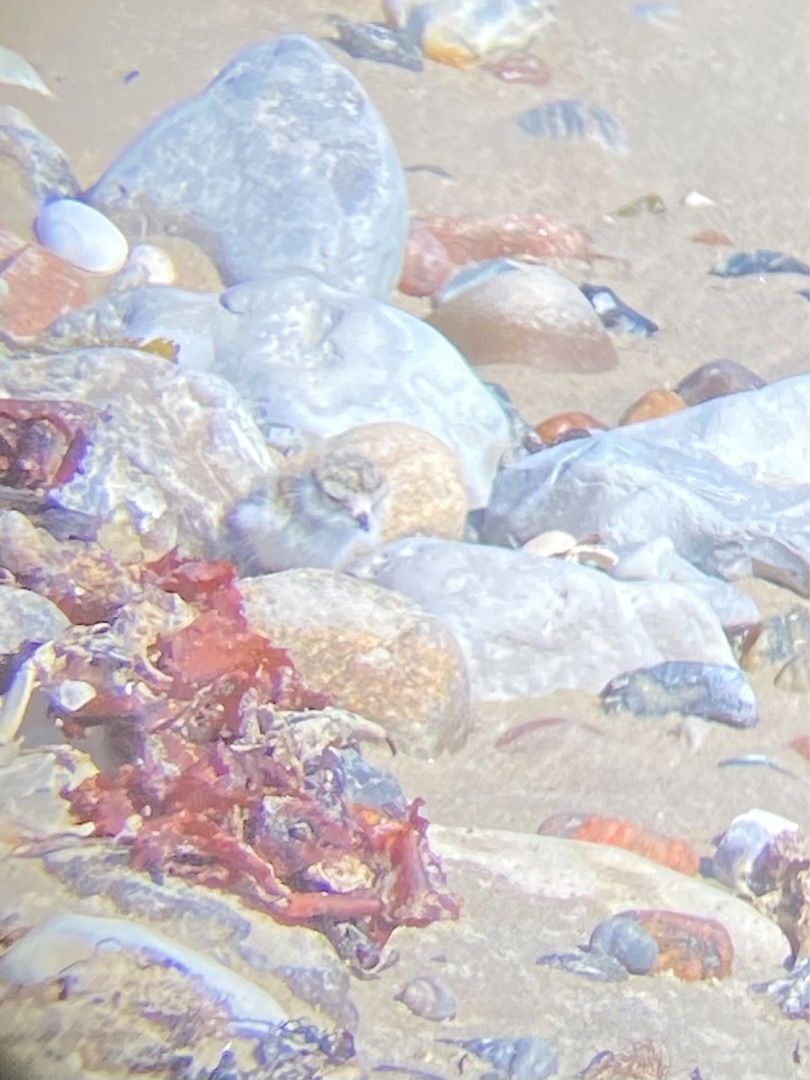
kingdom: Animalia
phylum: Chordata
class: Aves
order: Charadriiformes
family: Charadriidae
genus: Charadrius
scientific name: Charadrius hiaticula
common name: Stor præstekrave
